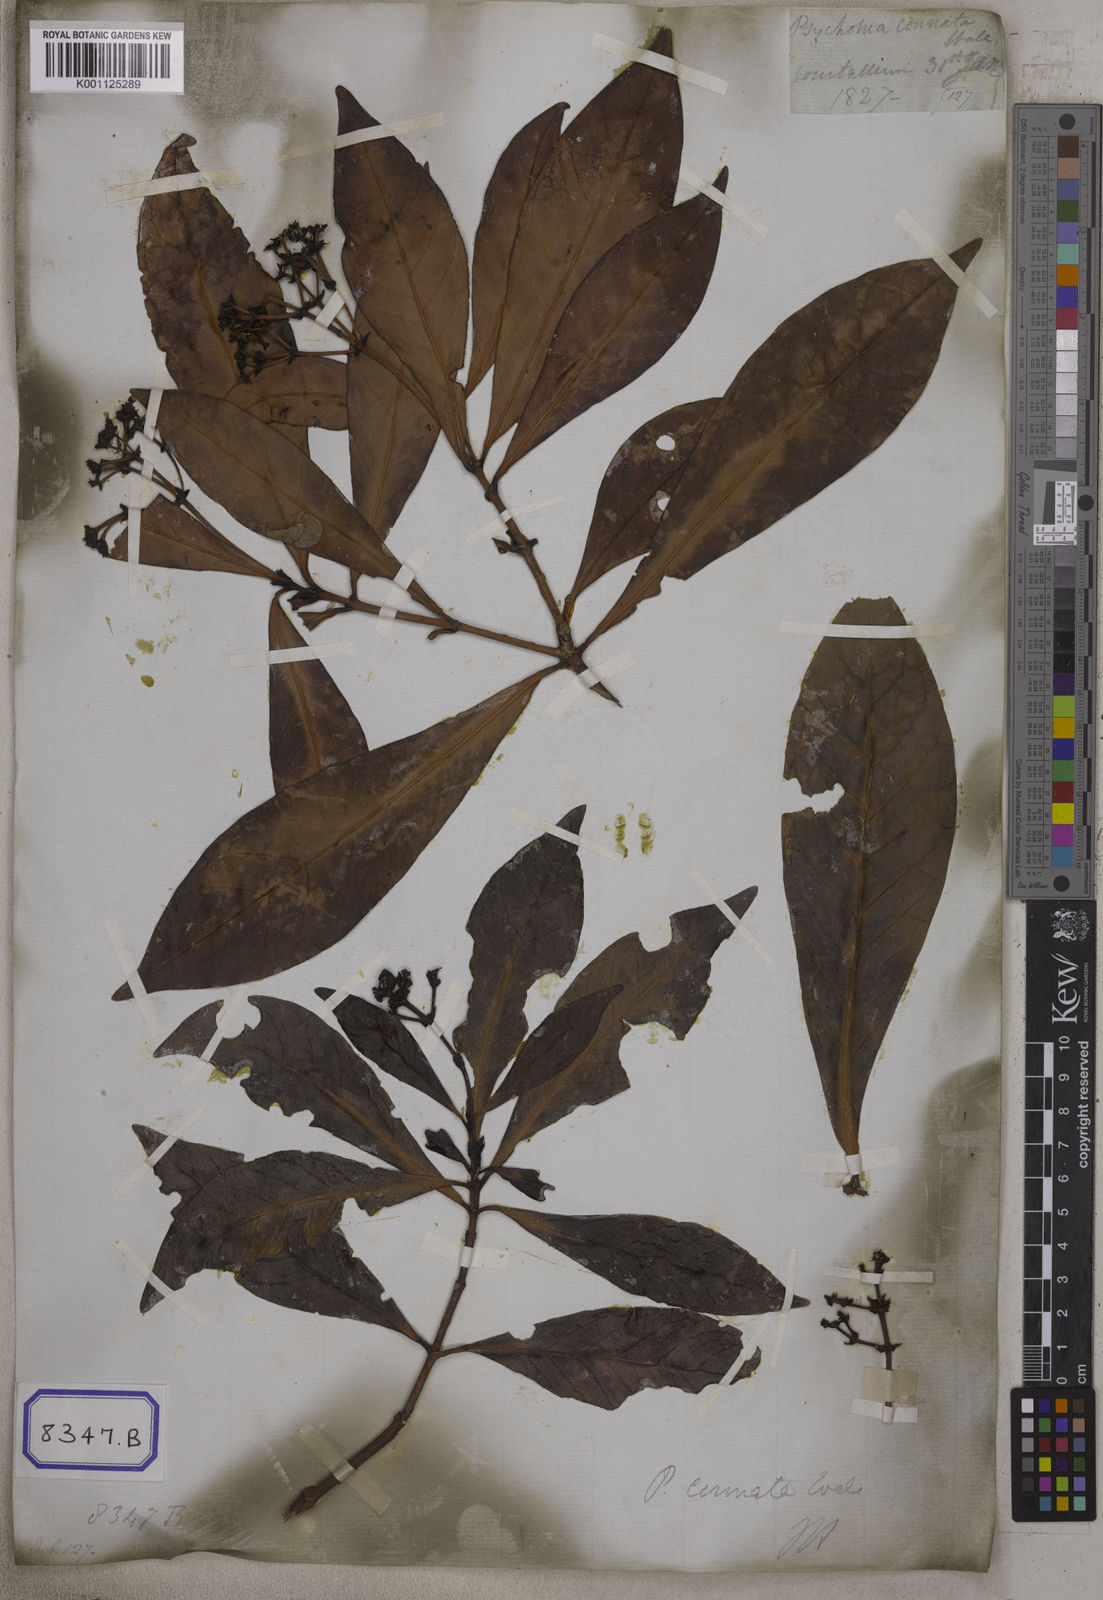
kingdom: Plantae
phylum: Tracheophyta
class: Magnoliopsida
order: Gentianales
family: Rubiaceae
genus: Psychotria
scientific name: Psychotria connata
